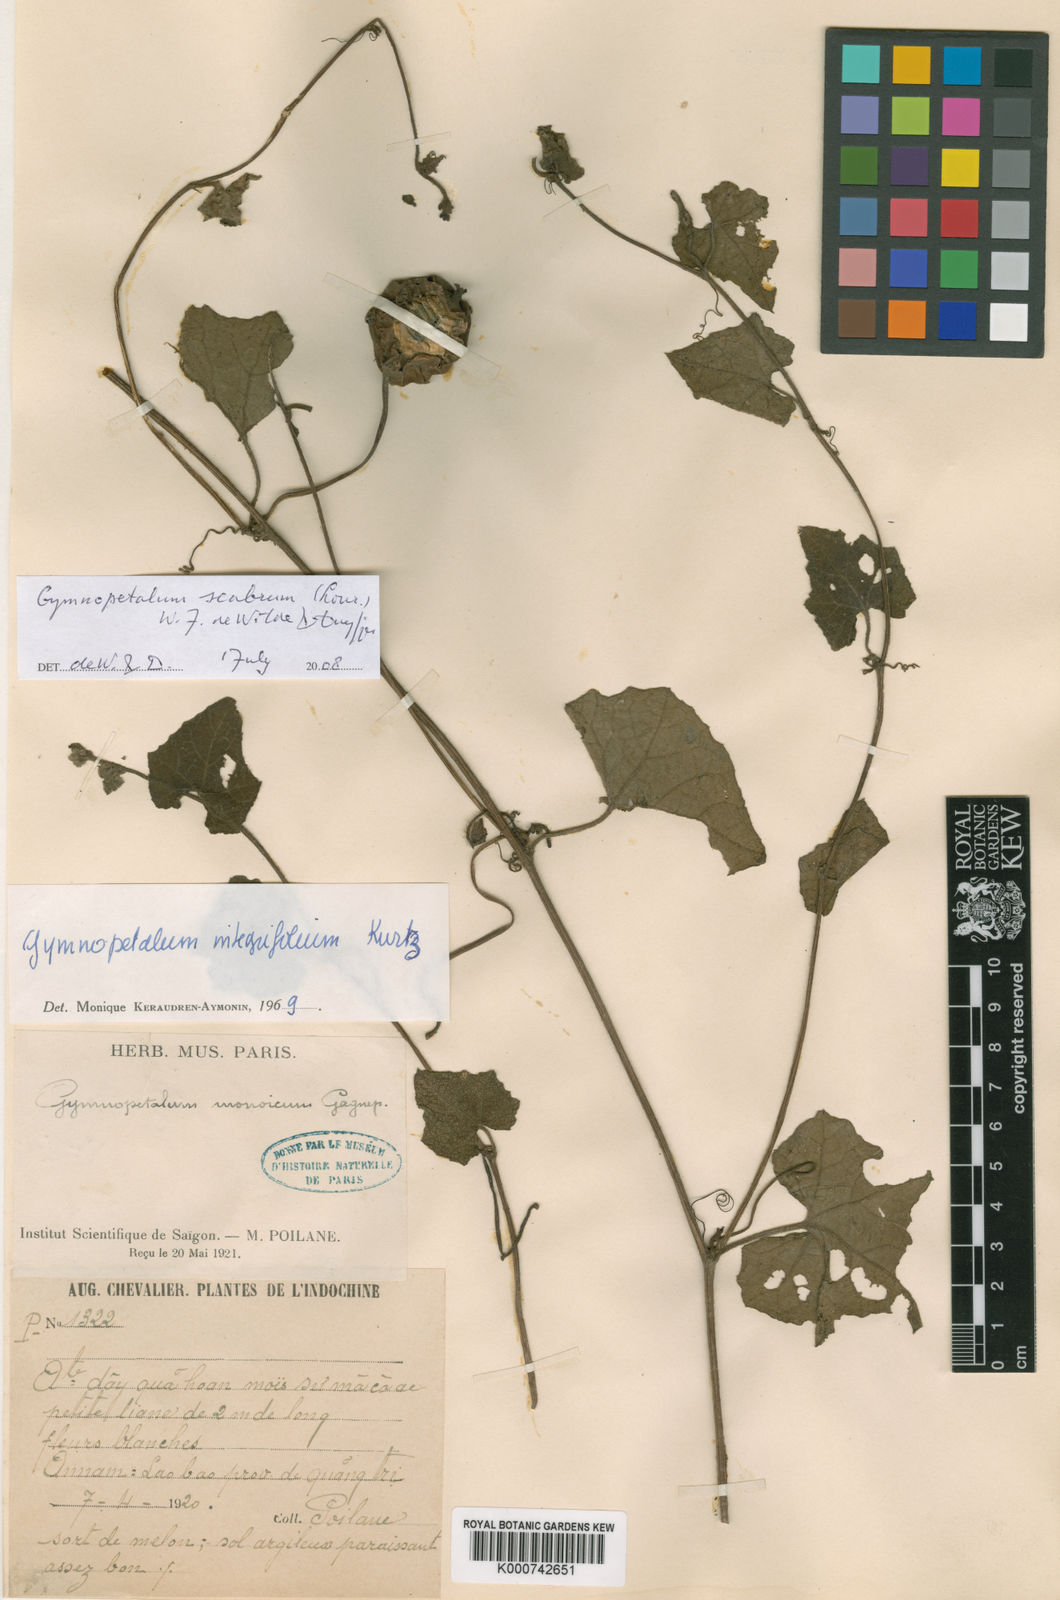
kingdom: Plantae
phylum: Tracheophyta
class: Magnoliopsida
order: Cucurbitales
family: Cucurbitaceae
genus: Trichosanthes
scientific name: Trichosanthes scabra
